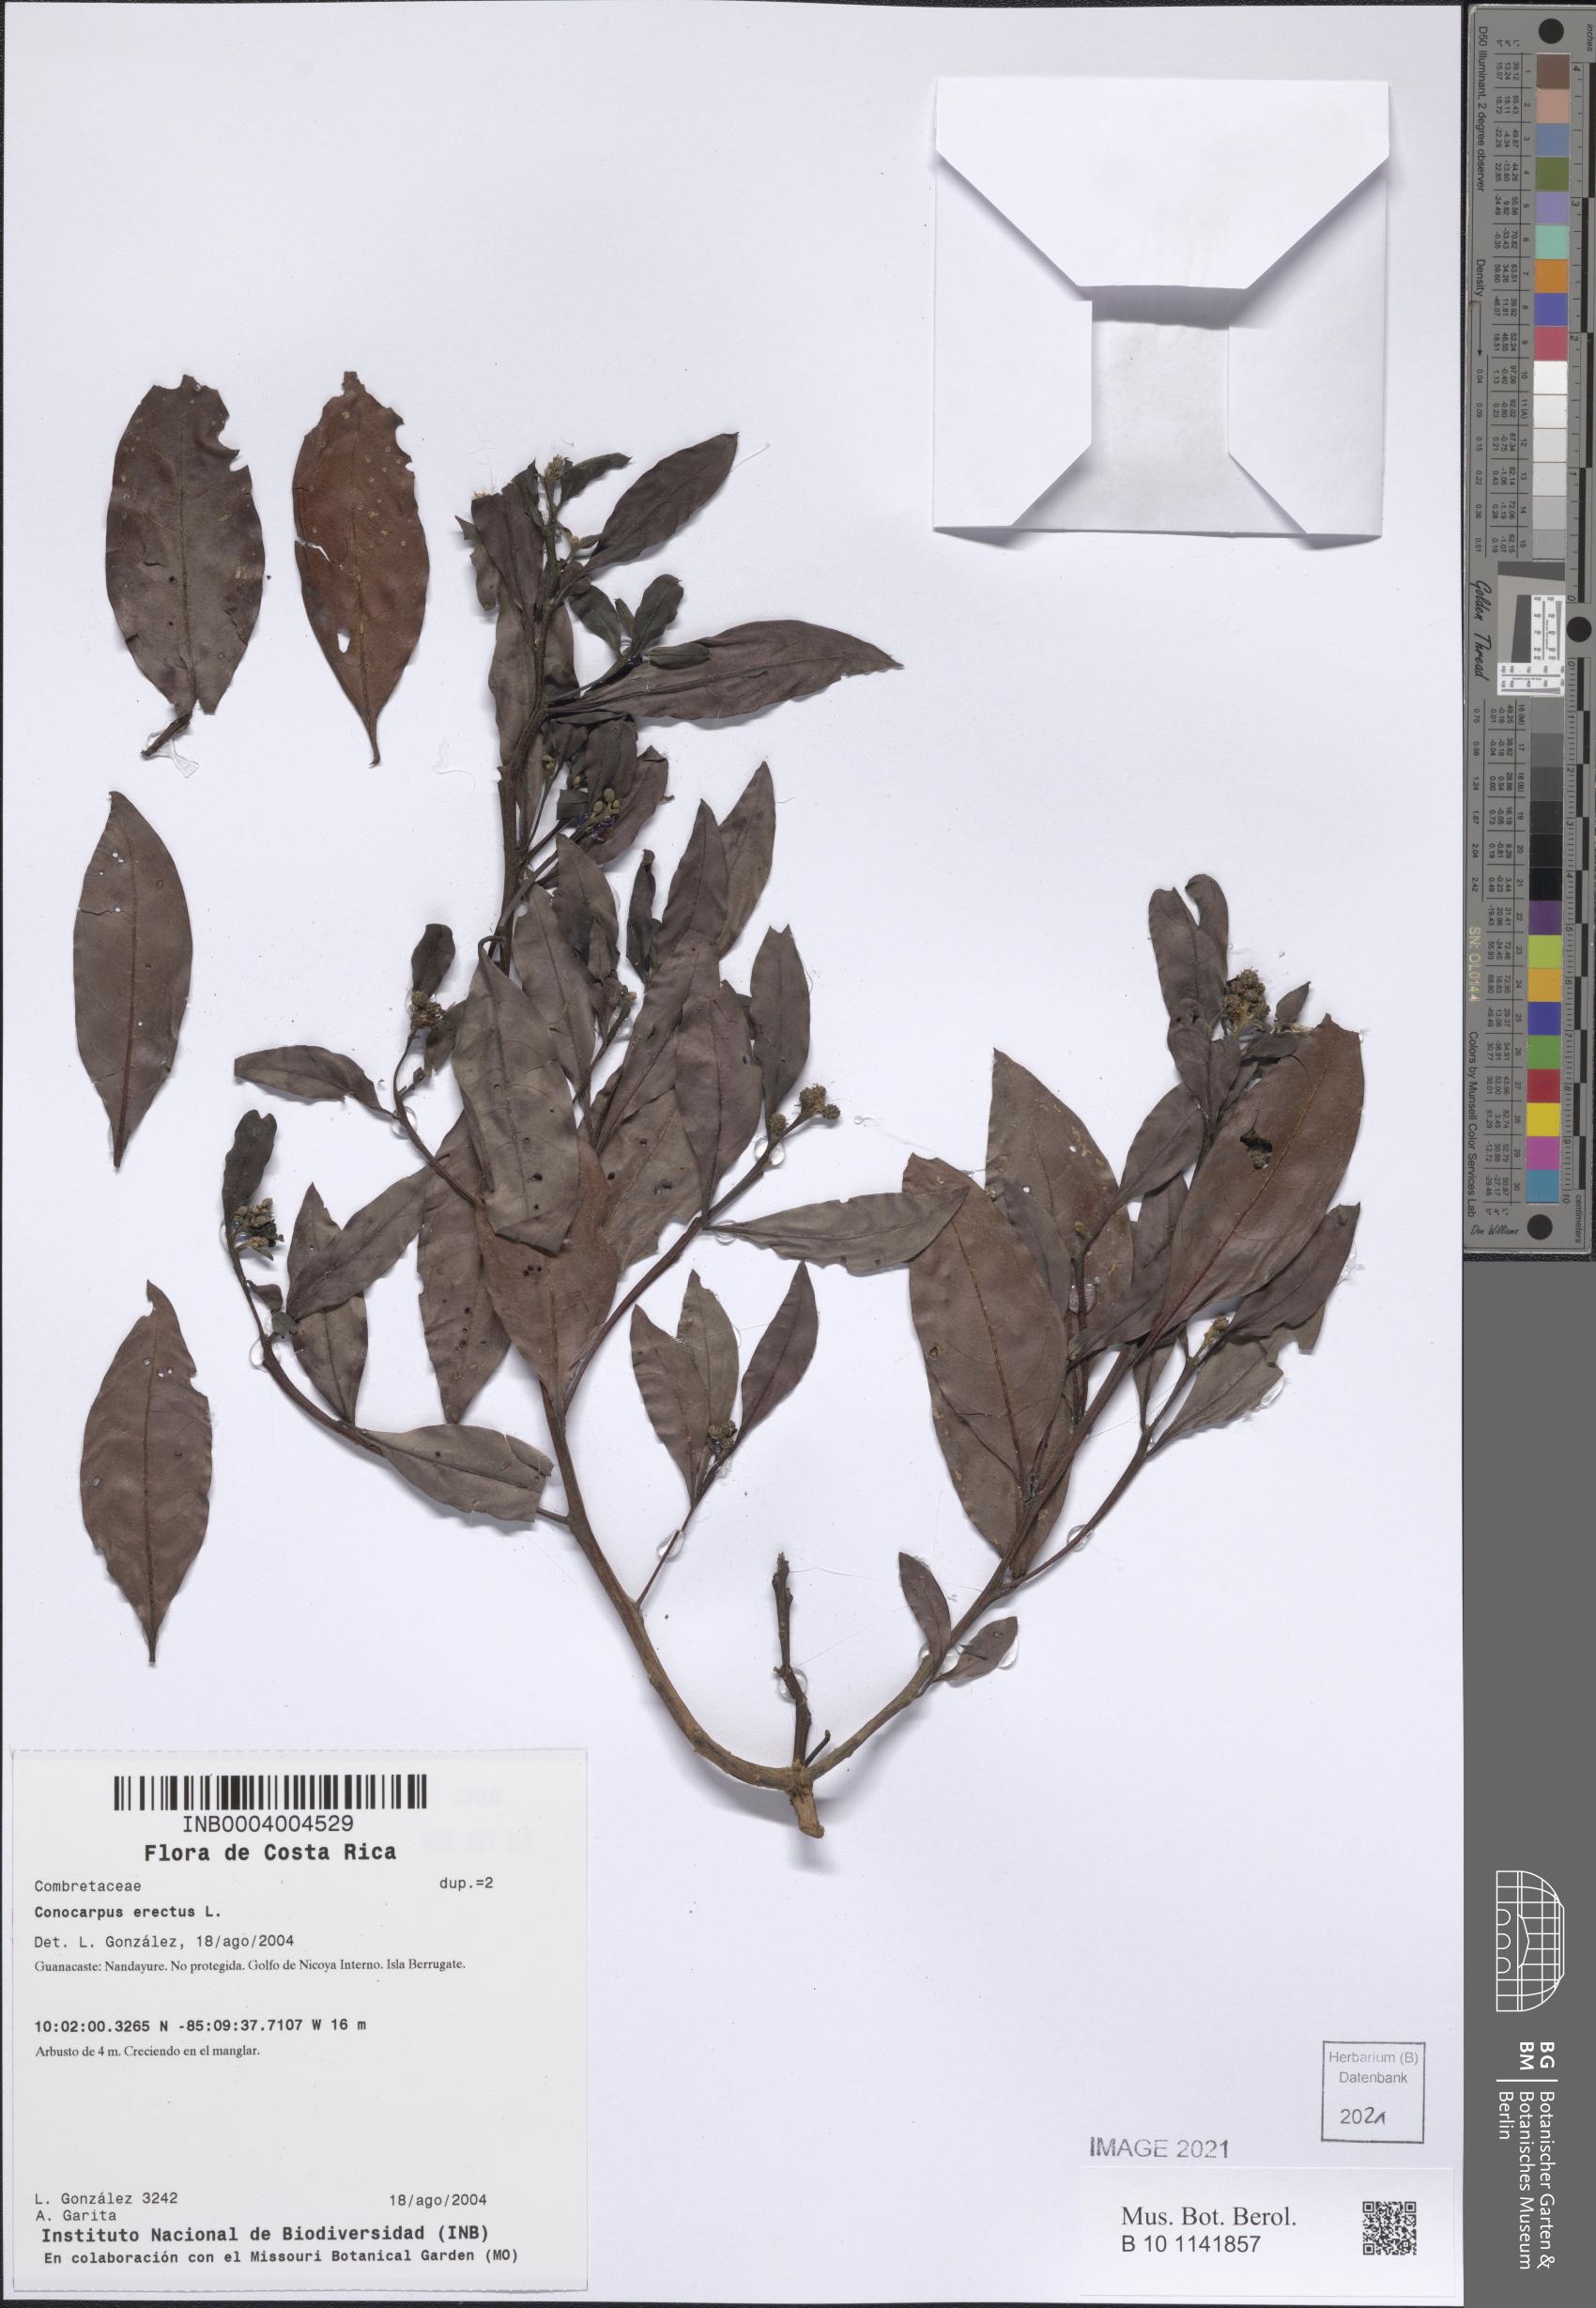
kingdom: Plantae
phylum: Tracheophyta
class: Magnoliopsida
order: Myrtales
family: Combretaceae
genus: Conocarpus
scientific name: Conocarpus erectus
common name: Button mangrove
